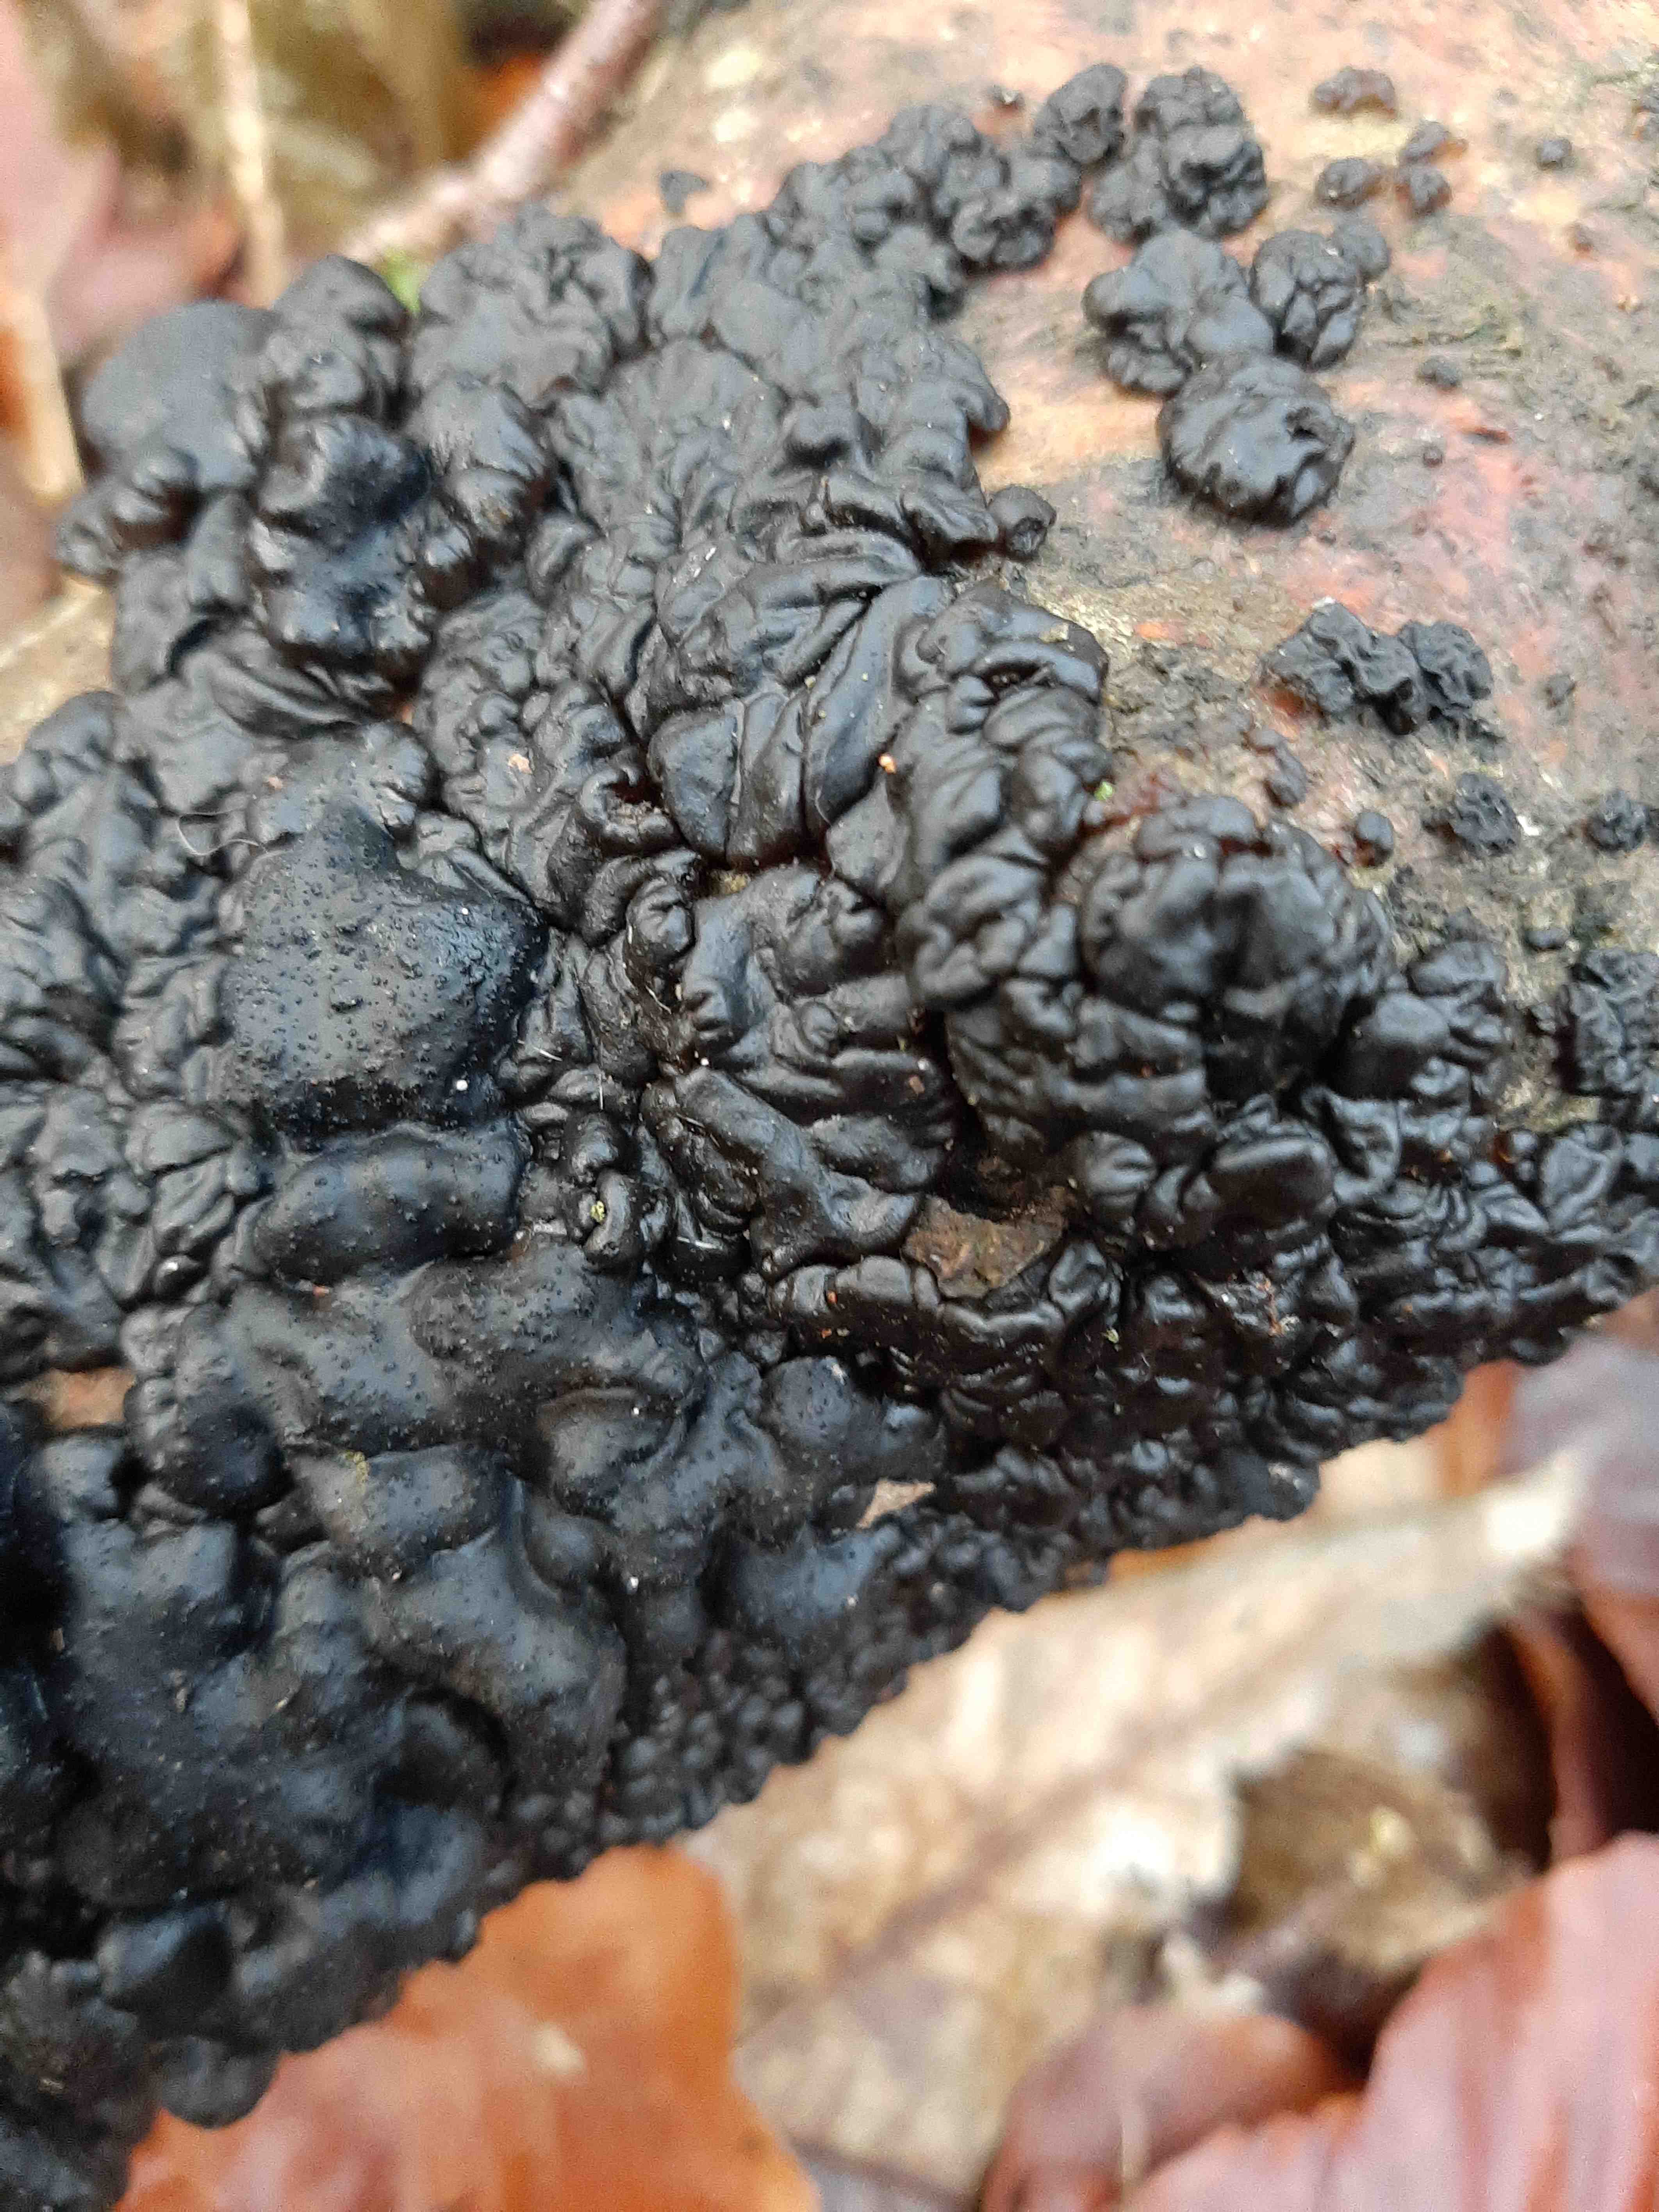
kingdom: Fungi
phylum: Basidiomycota
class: Agaricomycetes
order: Auriculariales
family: Auriculariaceae
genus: Exidia
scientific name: Exidia nigricans
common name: almindelig bævretop
